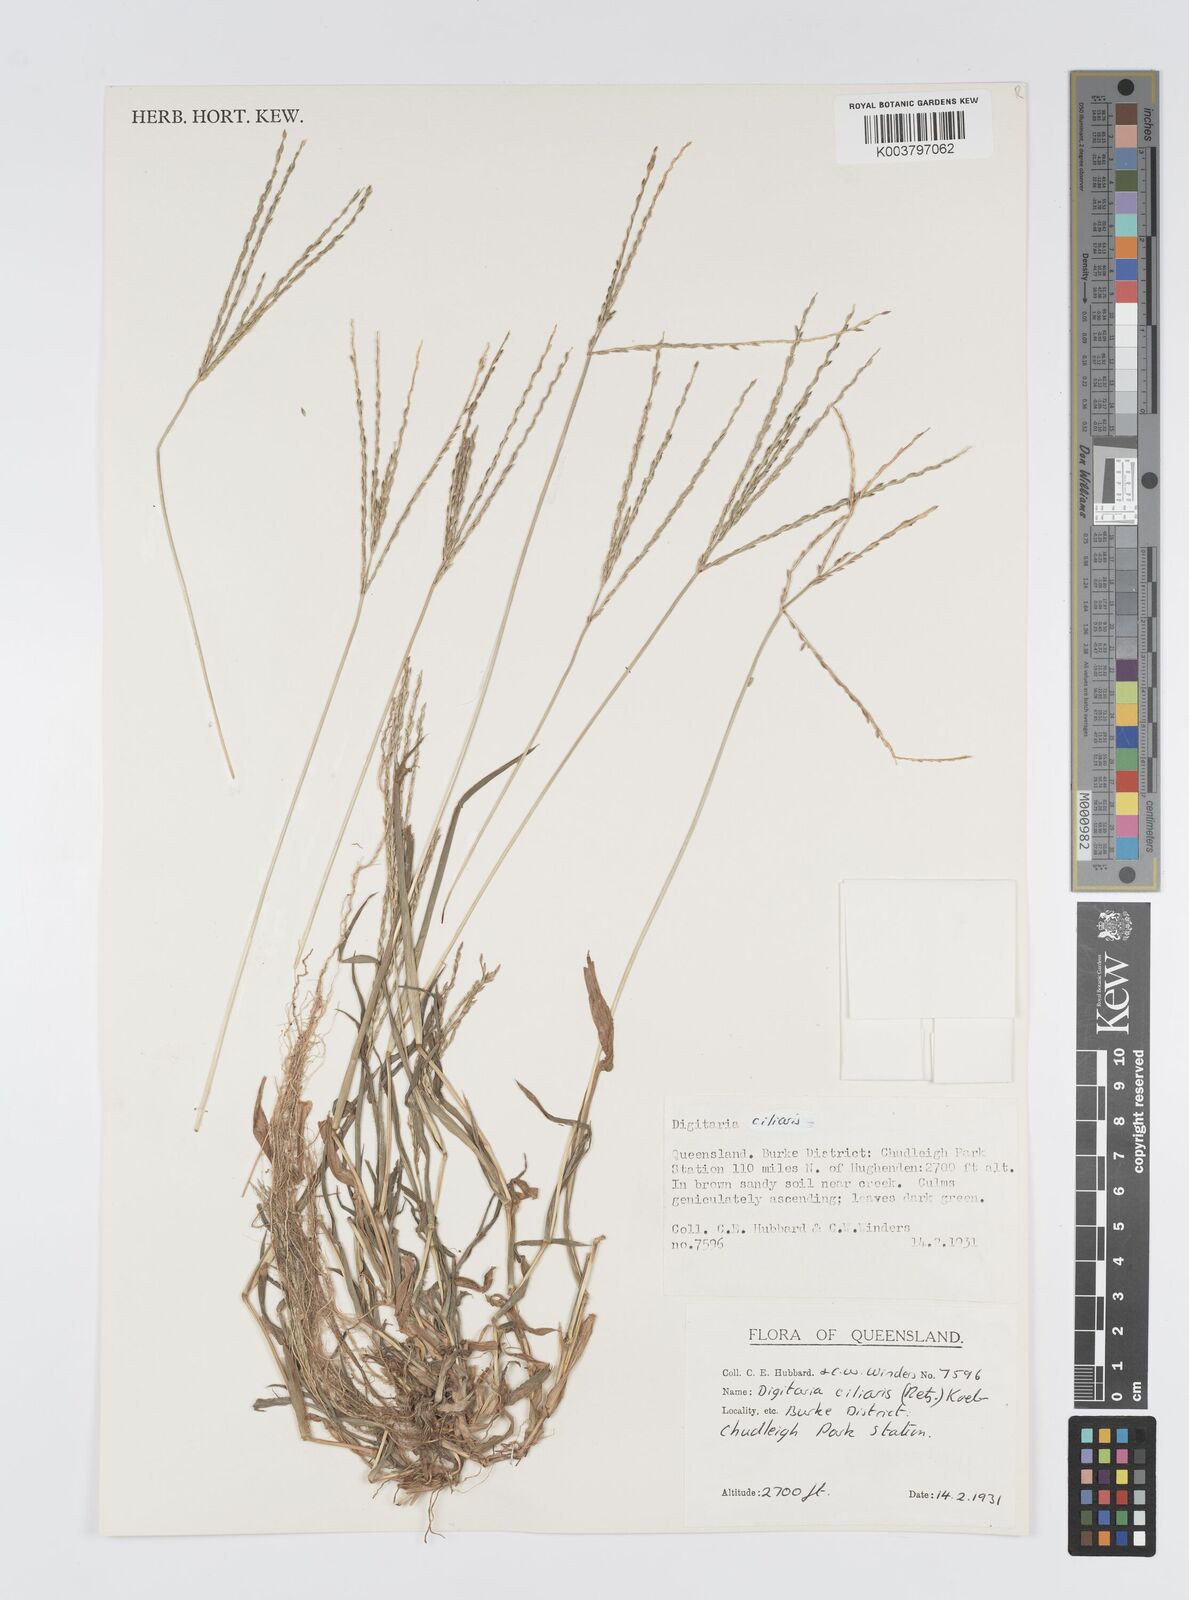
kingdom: Plantae
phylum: Tracheophyta
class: Liliopsida
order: Poales
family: Poaceae
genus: Digitaria
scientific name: Digitaria ciliaris
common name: Tropical finger-grass
